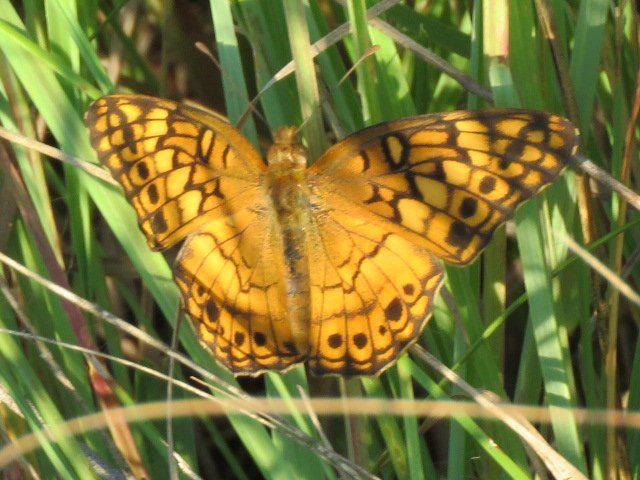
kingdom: Animalia
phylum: Arthropoda
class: Insecta
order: Lepidoptera
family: Nymphalidae
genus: Euptoieta
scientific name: Euptoieta claudia
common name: Variegated Fritillary
